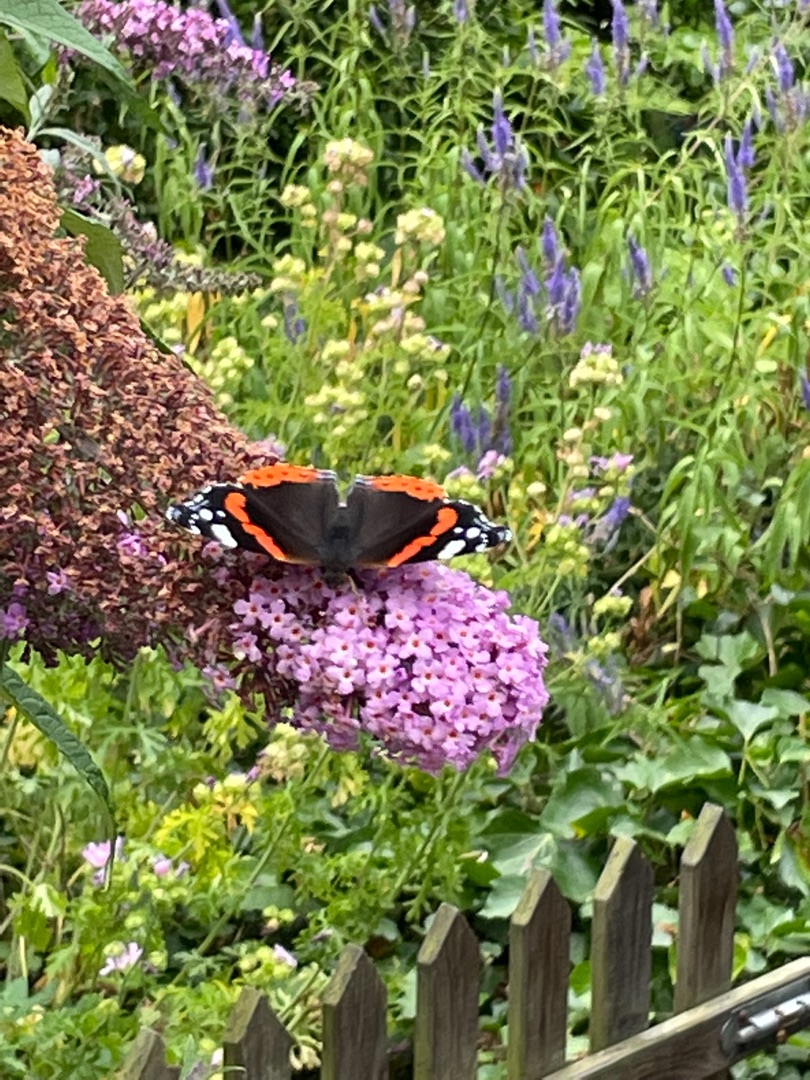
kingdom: Animalia
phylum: Arthropoda
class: Insecta
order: Lepidoptera
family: Nymphalidae
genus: Vanessa
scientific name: Vanessa atalanta
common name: Admiral
